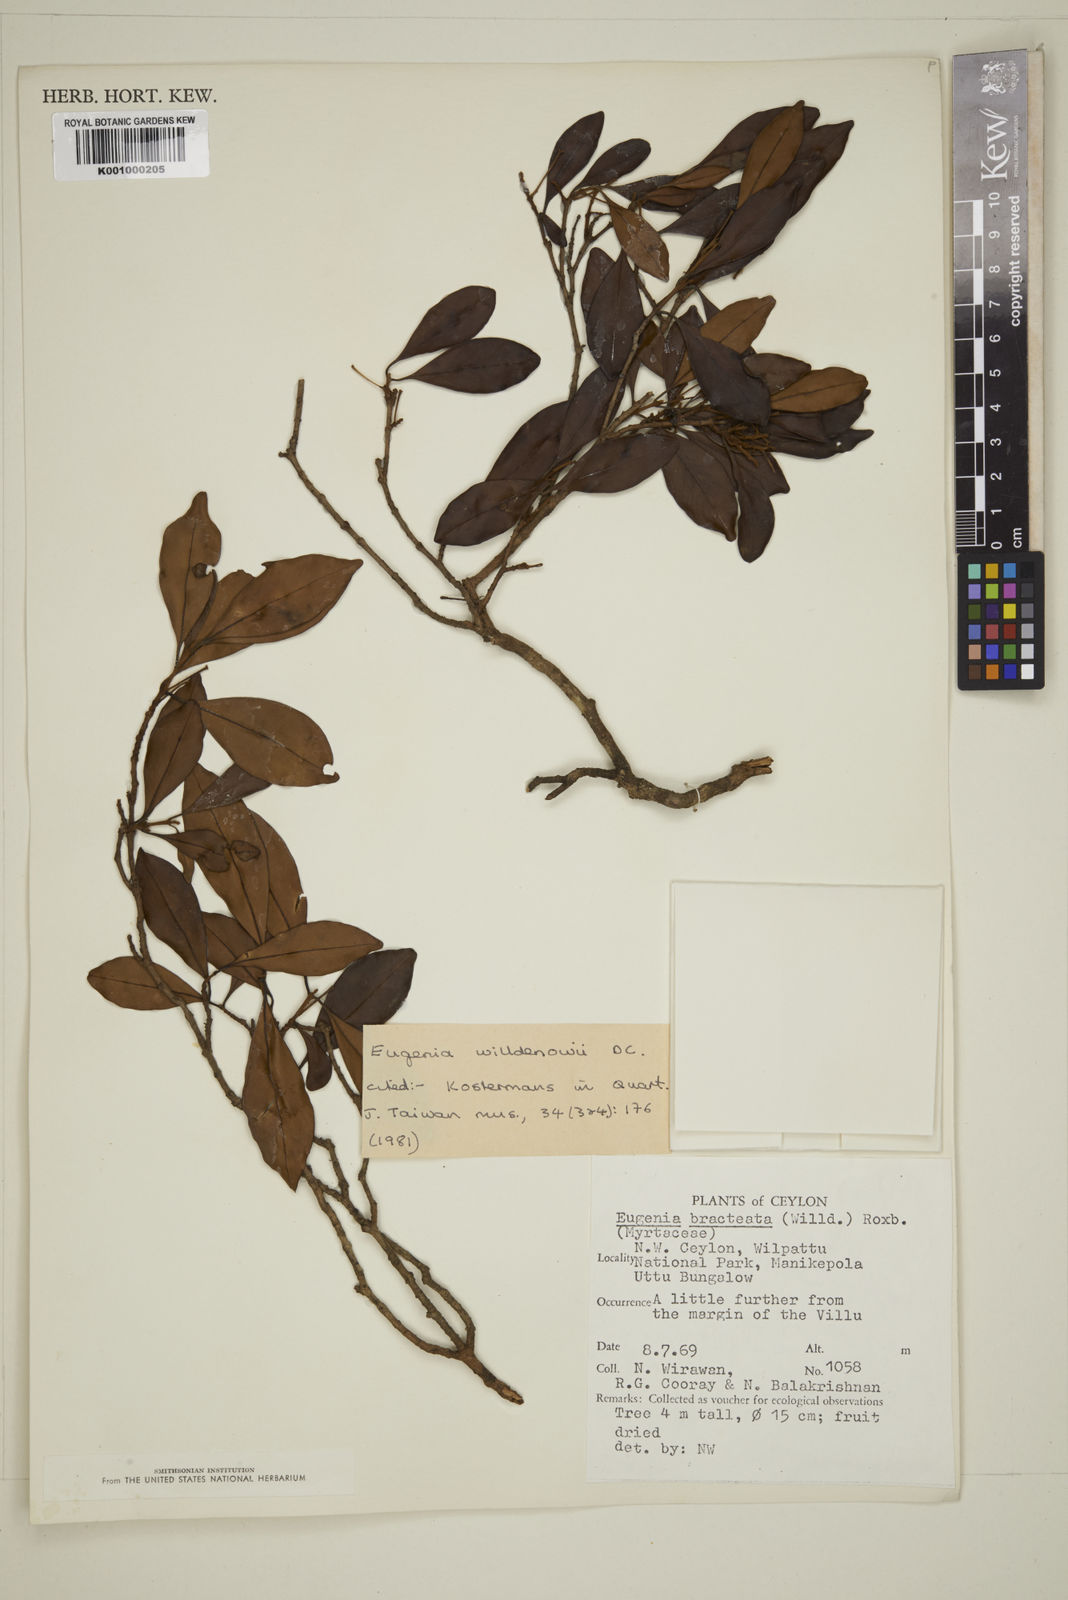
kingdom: Plantae
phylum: Tracheophyta
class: Magnoliopsida
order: Myrtales
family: Myrtaceae
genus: Eugenia
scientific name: Eugenia pseudopsidium
